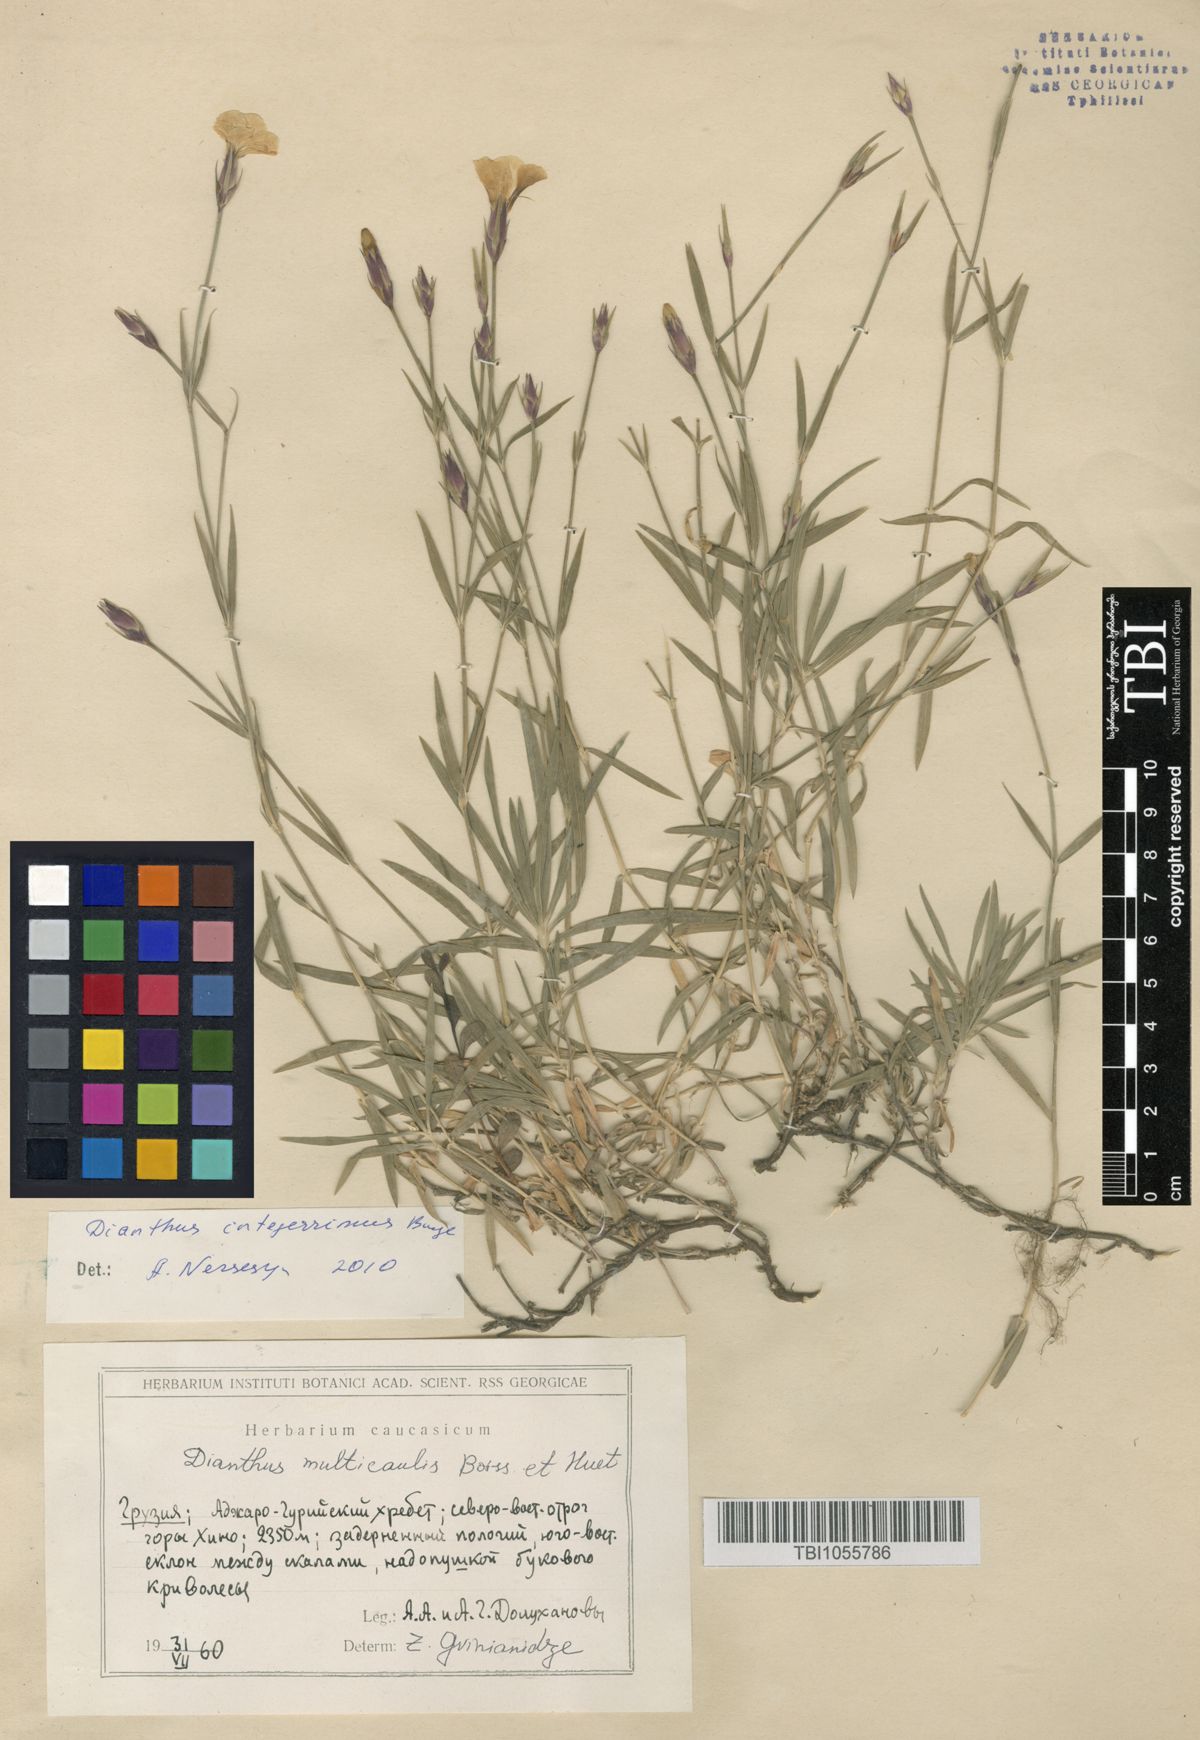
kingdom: Plantae
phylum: Tracheophyta
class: Magnoliopsida
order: Caryophyllales
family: Caryophyllaceae
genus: Dianthus
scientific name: Dianthus cretaceus
